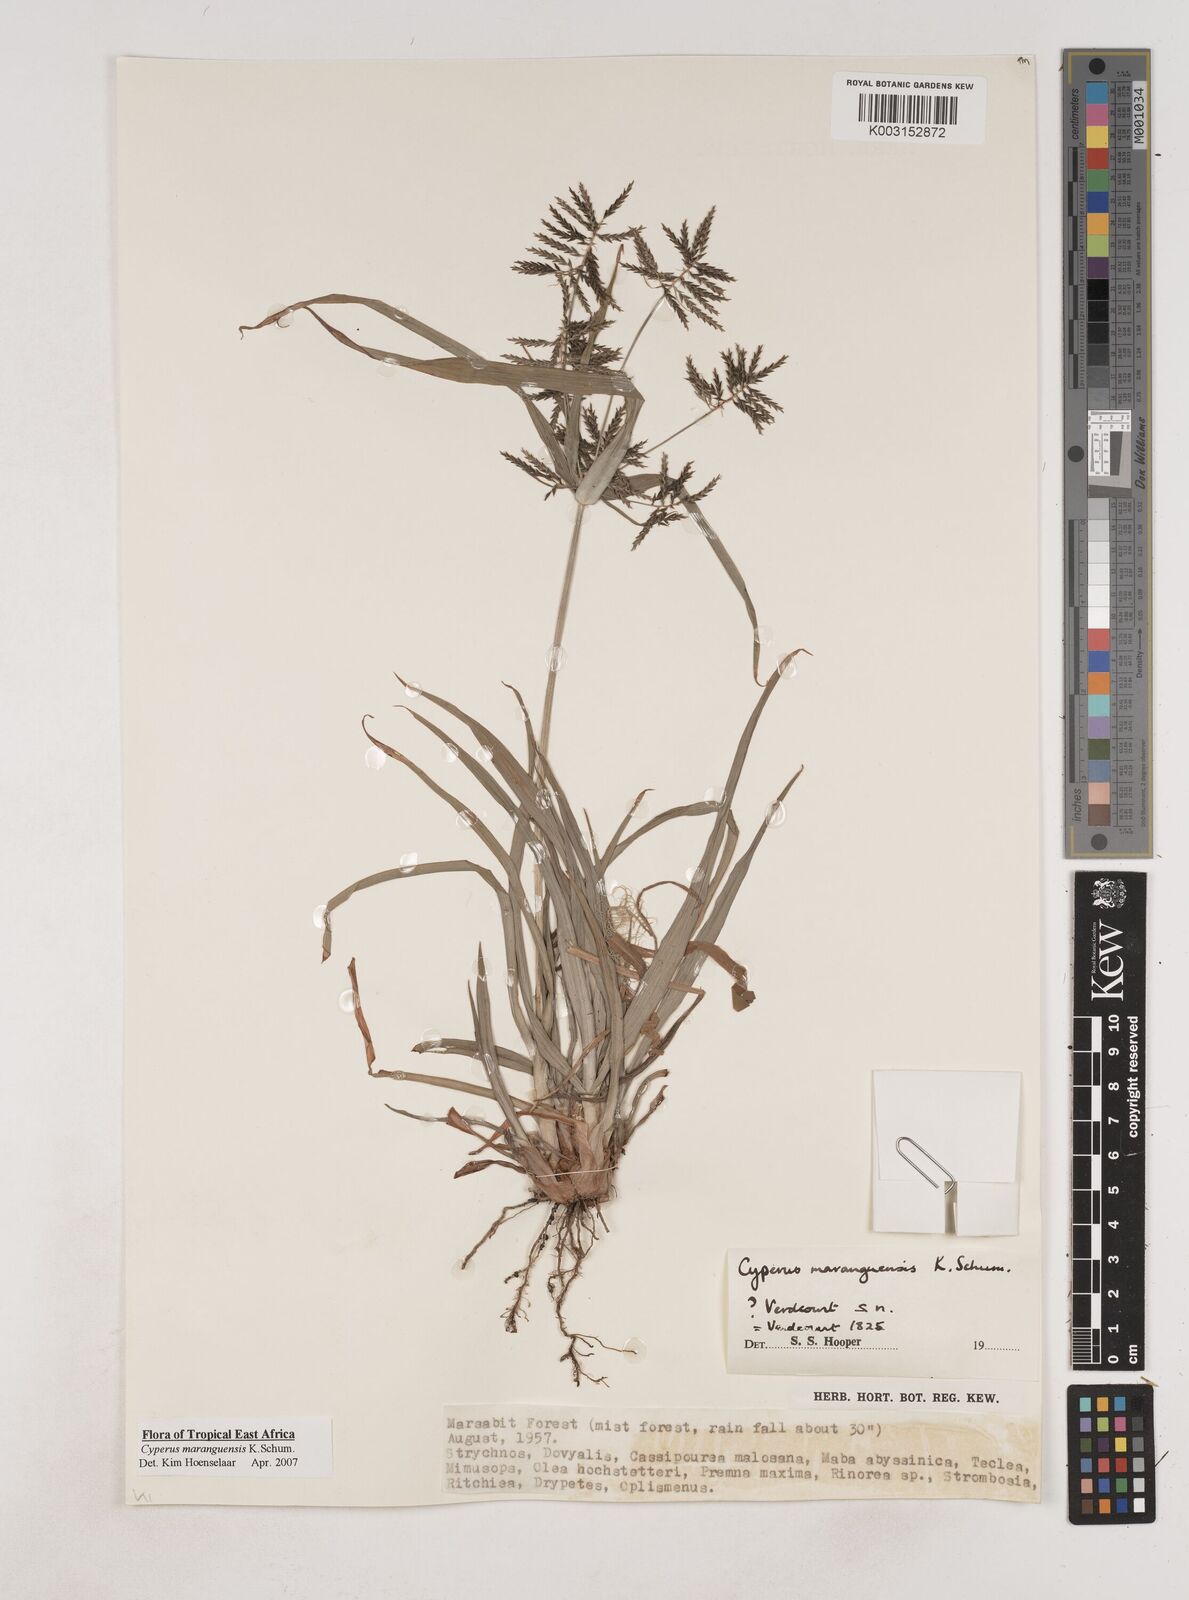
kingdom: Plantae
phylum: Tracheophyta
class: Liliopsida
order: Poales
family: Cyperaceae
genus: Cyperus
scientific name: Cyperus maranguensis
